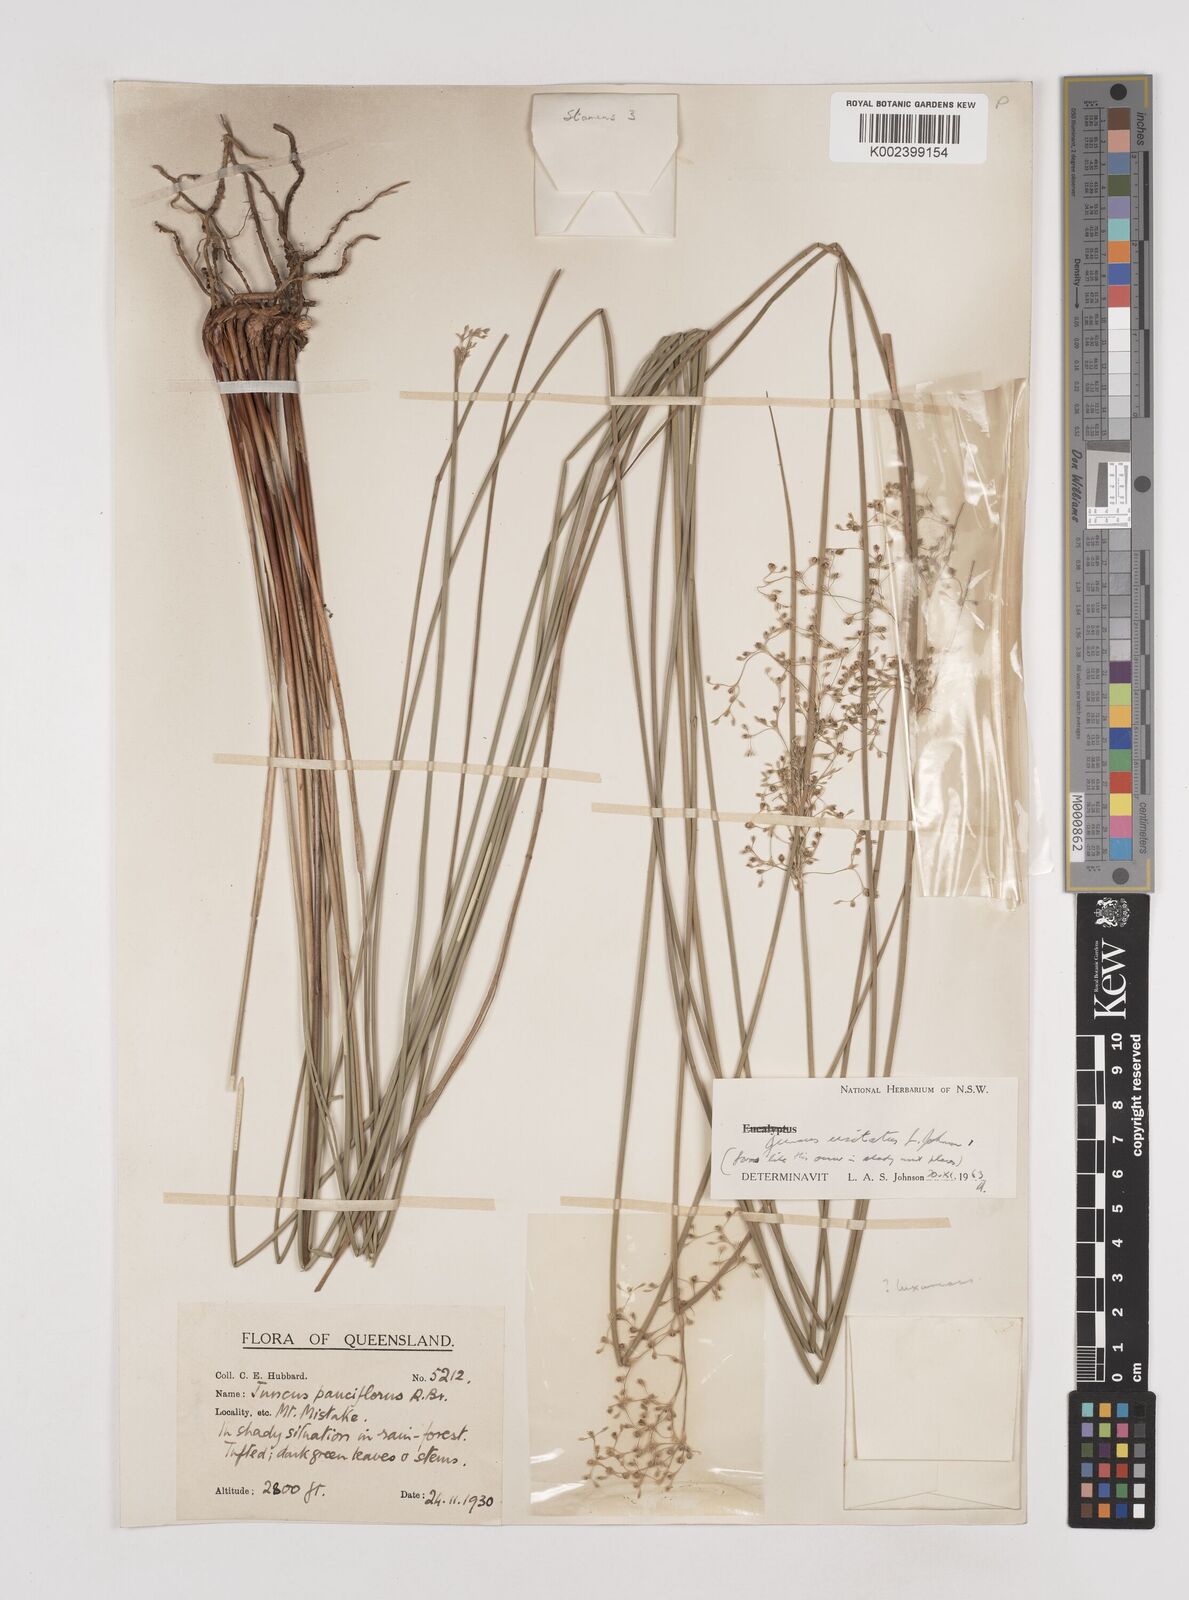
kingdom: Plantae
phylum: Tracheophyta
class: Liliopsida
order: Poales
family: Juncaceae
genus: Juncus
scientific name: Juncus usitatus
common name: Rush
